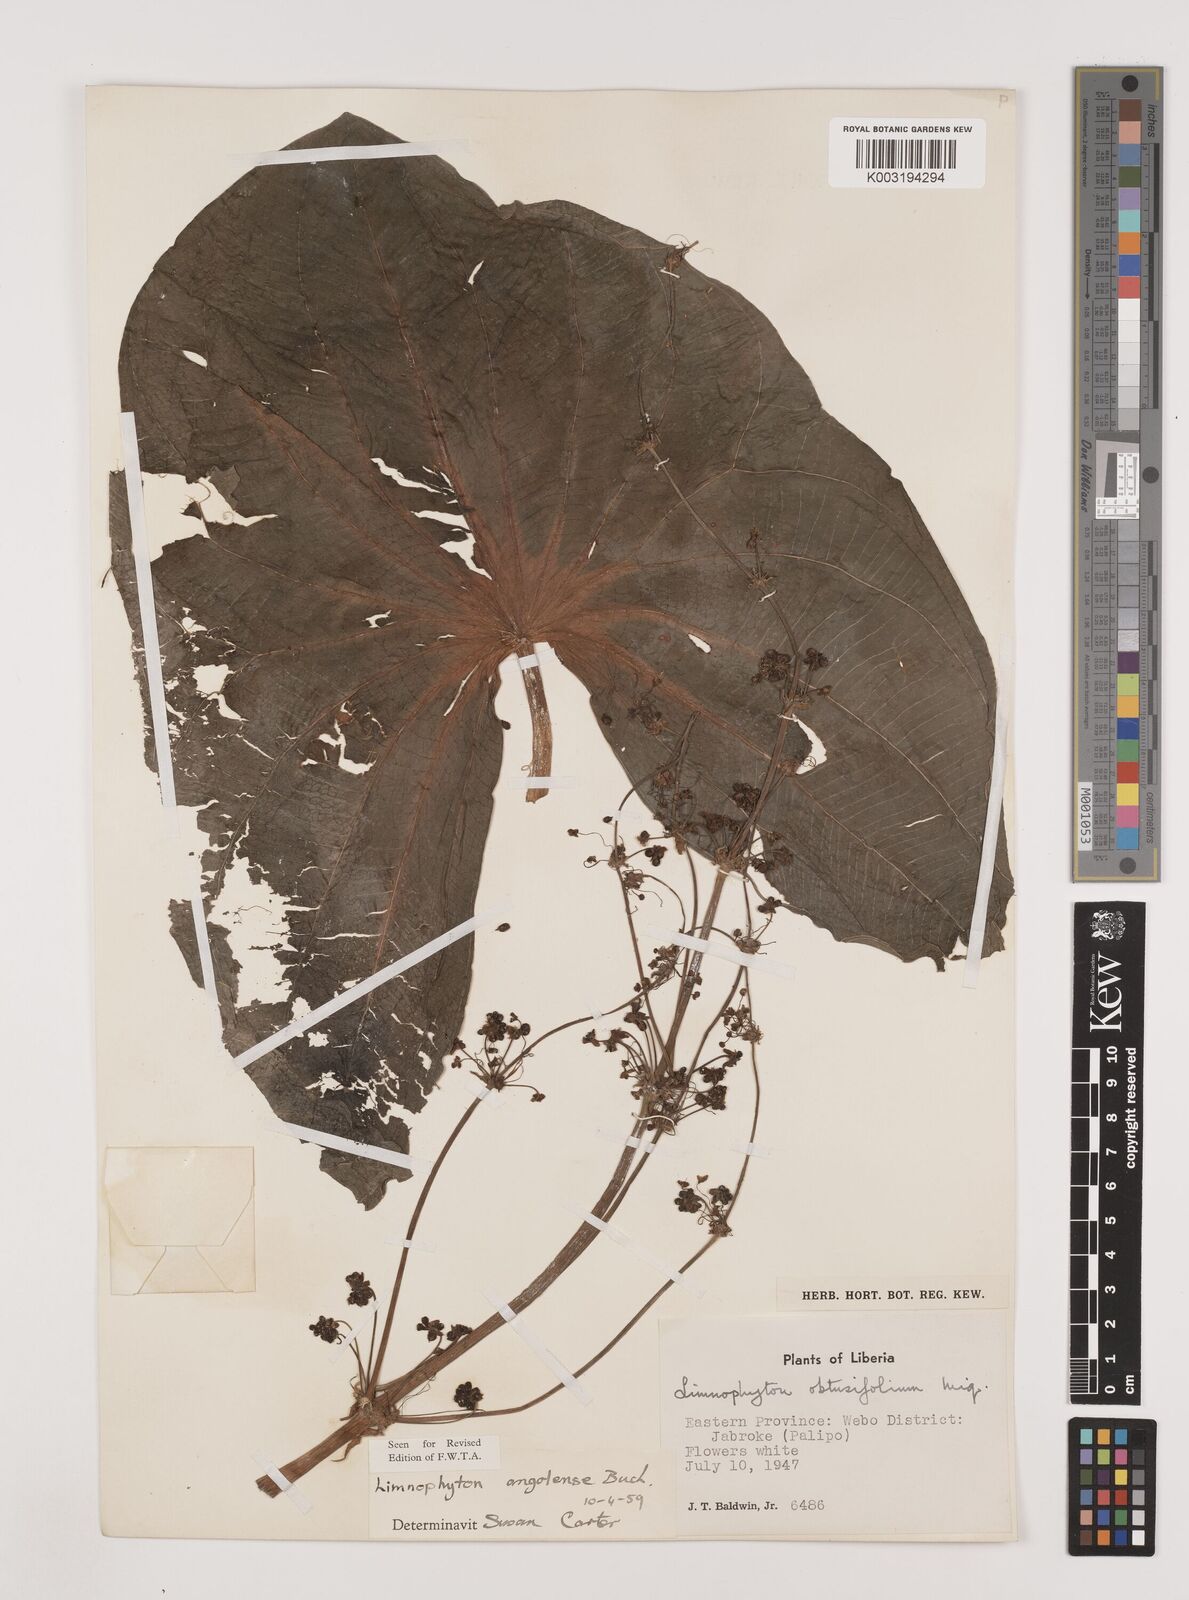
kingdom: Plantae
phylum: Tracheophyta
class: Liliopsida
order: Alismatales
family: Alismataceae
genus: Limnophyton
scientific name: Limnophyton angolense
